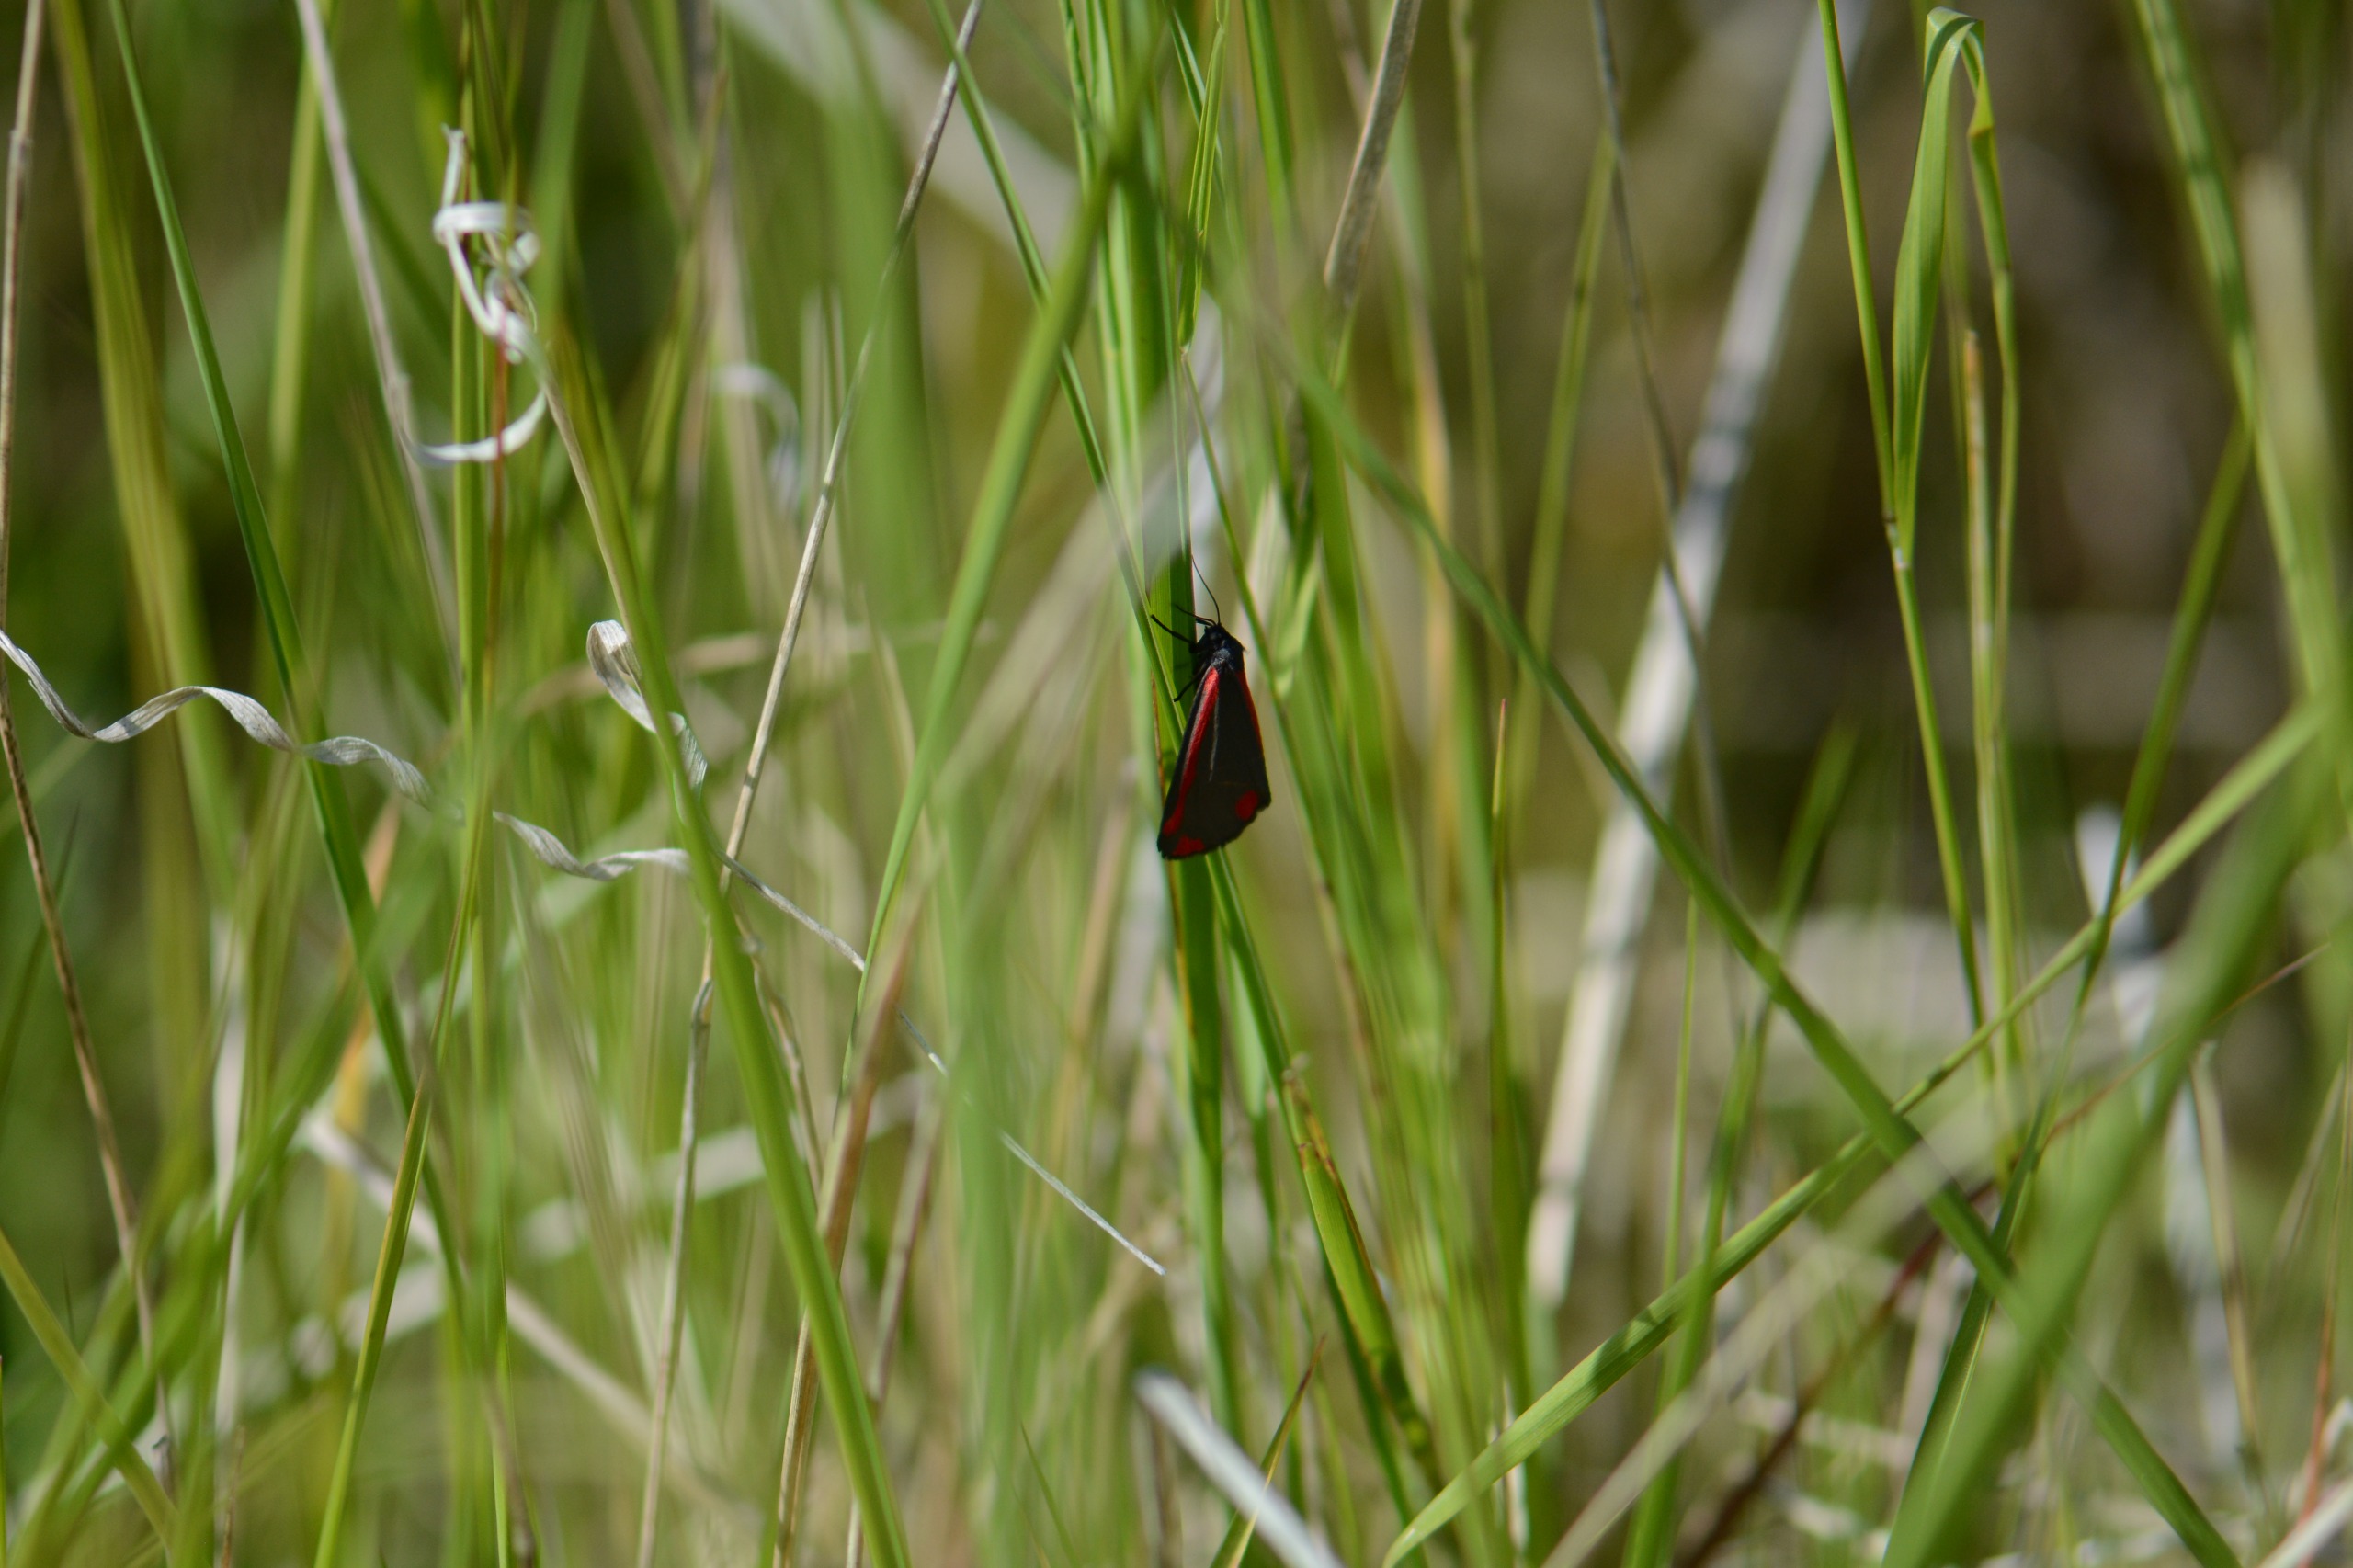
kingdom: Animalia
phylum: Arthropoda
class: Insecta
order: Lepidoptera
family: Erebidae
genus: Tyria
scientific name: Tyria jacobaeae
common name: Blodplet
